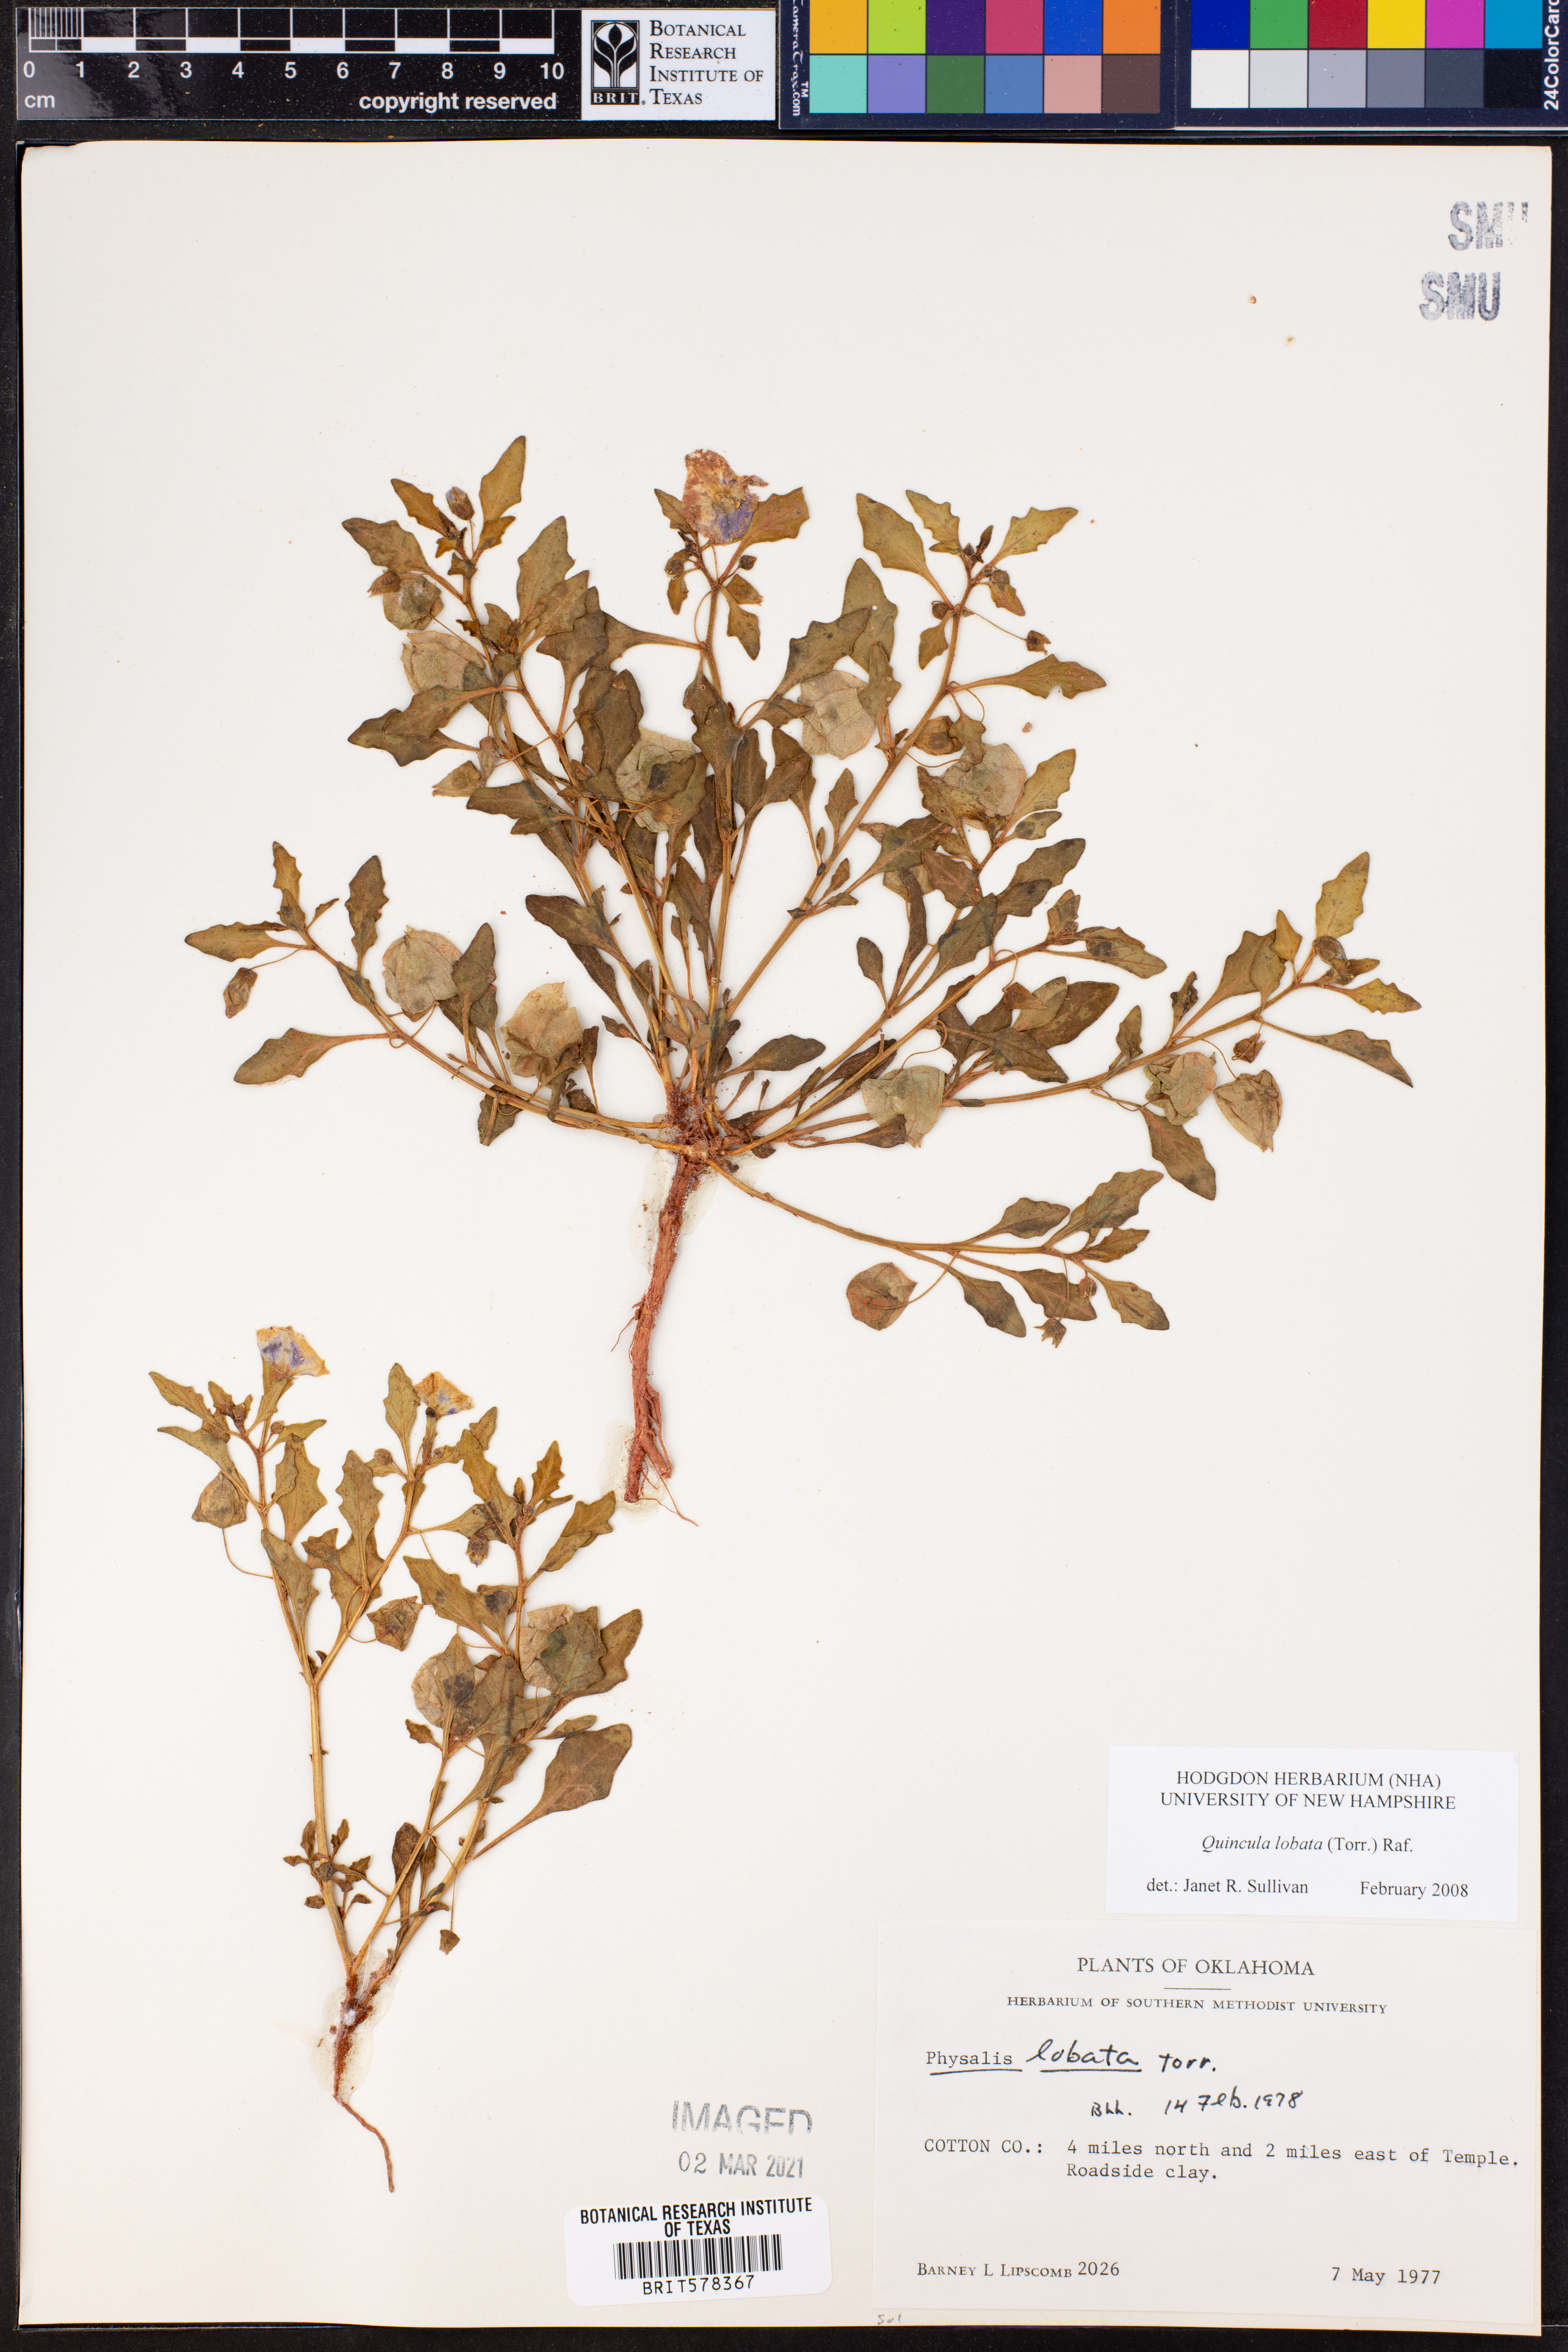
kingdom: Plantae
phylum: Tracheophyta
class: Magnoliopsida
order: Solanales
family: Solanaceae
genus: Quincula
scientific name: Quincula lobata
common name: Purple-ground-cherry
